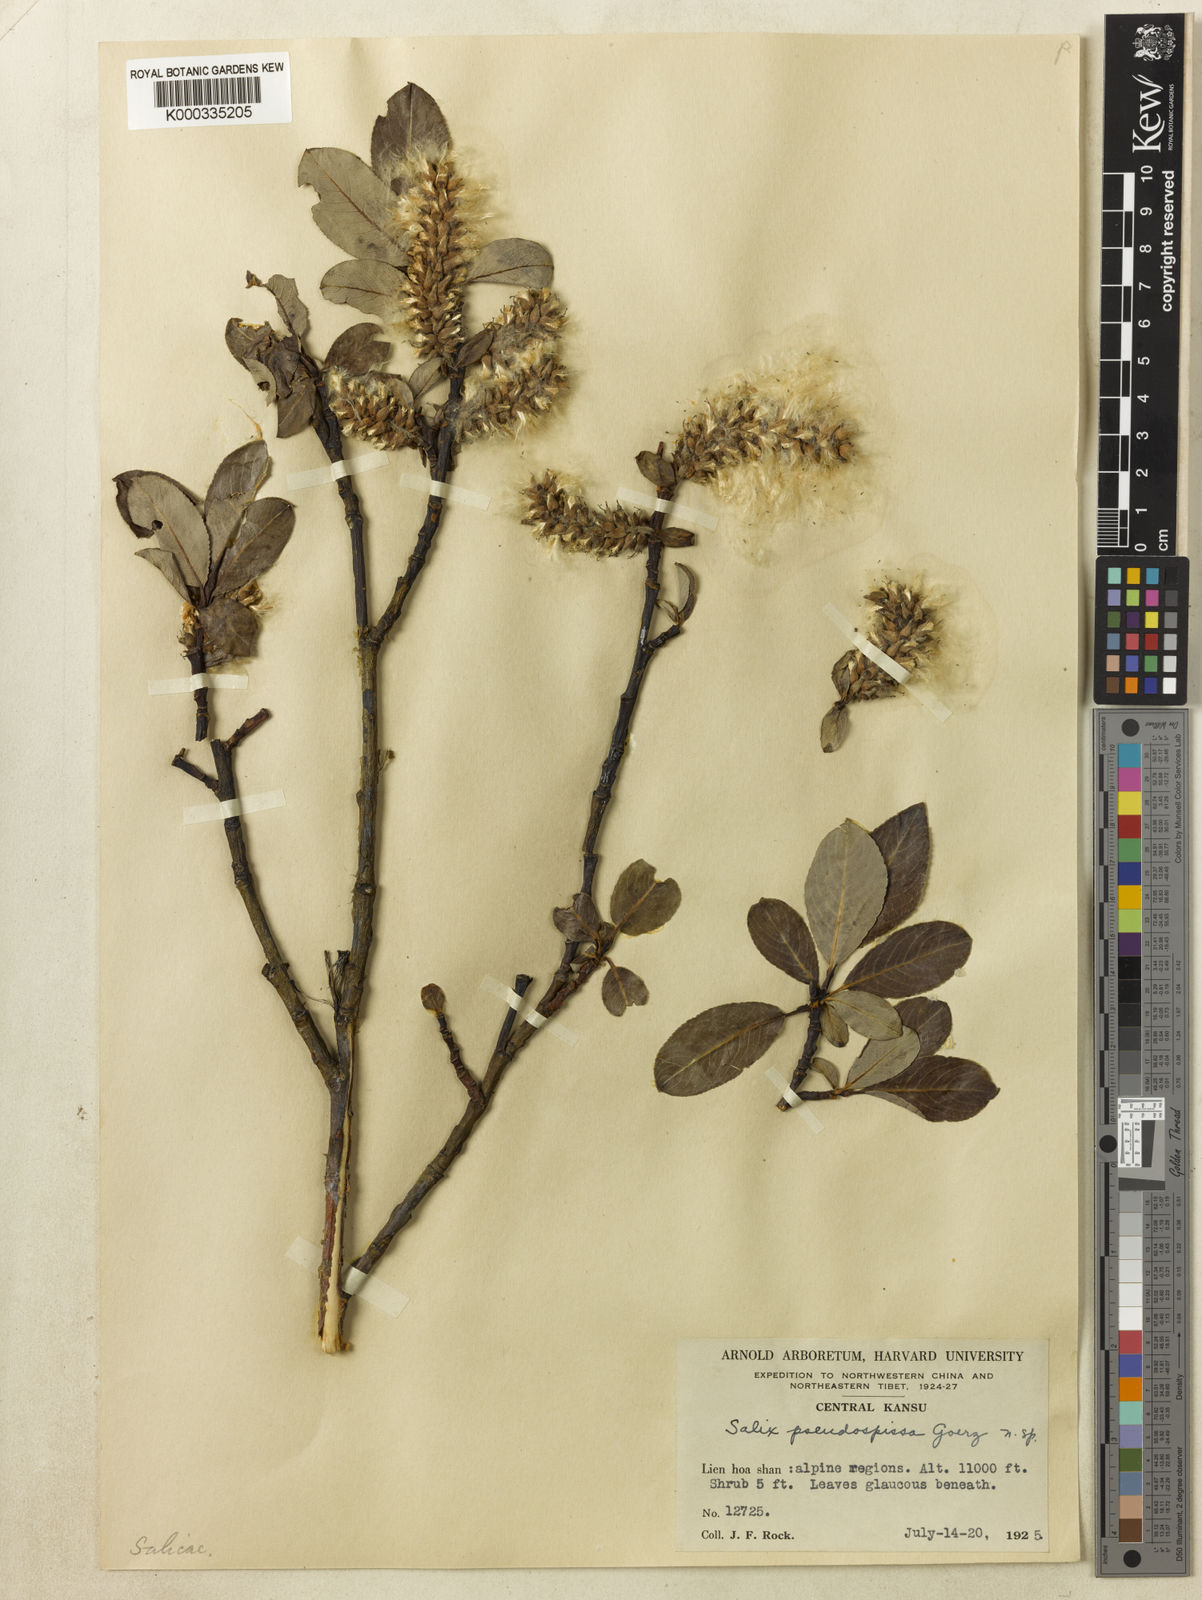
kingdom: Plantae
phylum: Tracheophyta
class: Magnoliopsida
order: Malpighiales
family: Salicaceae
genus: Salix
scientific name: Salix
